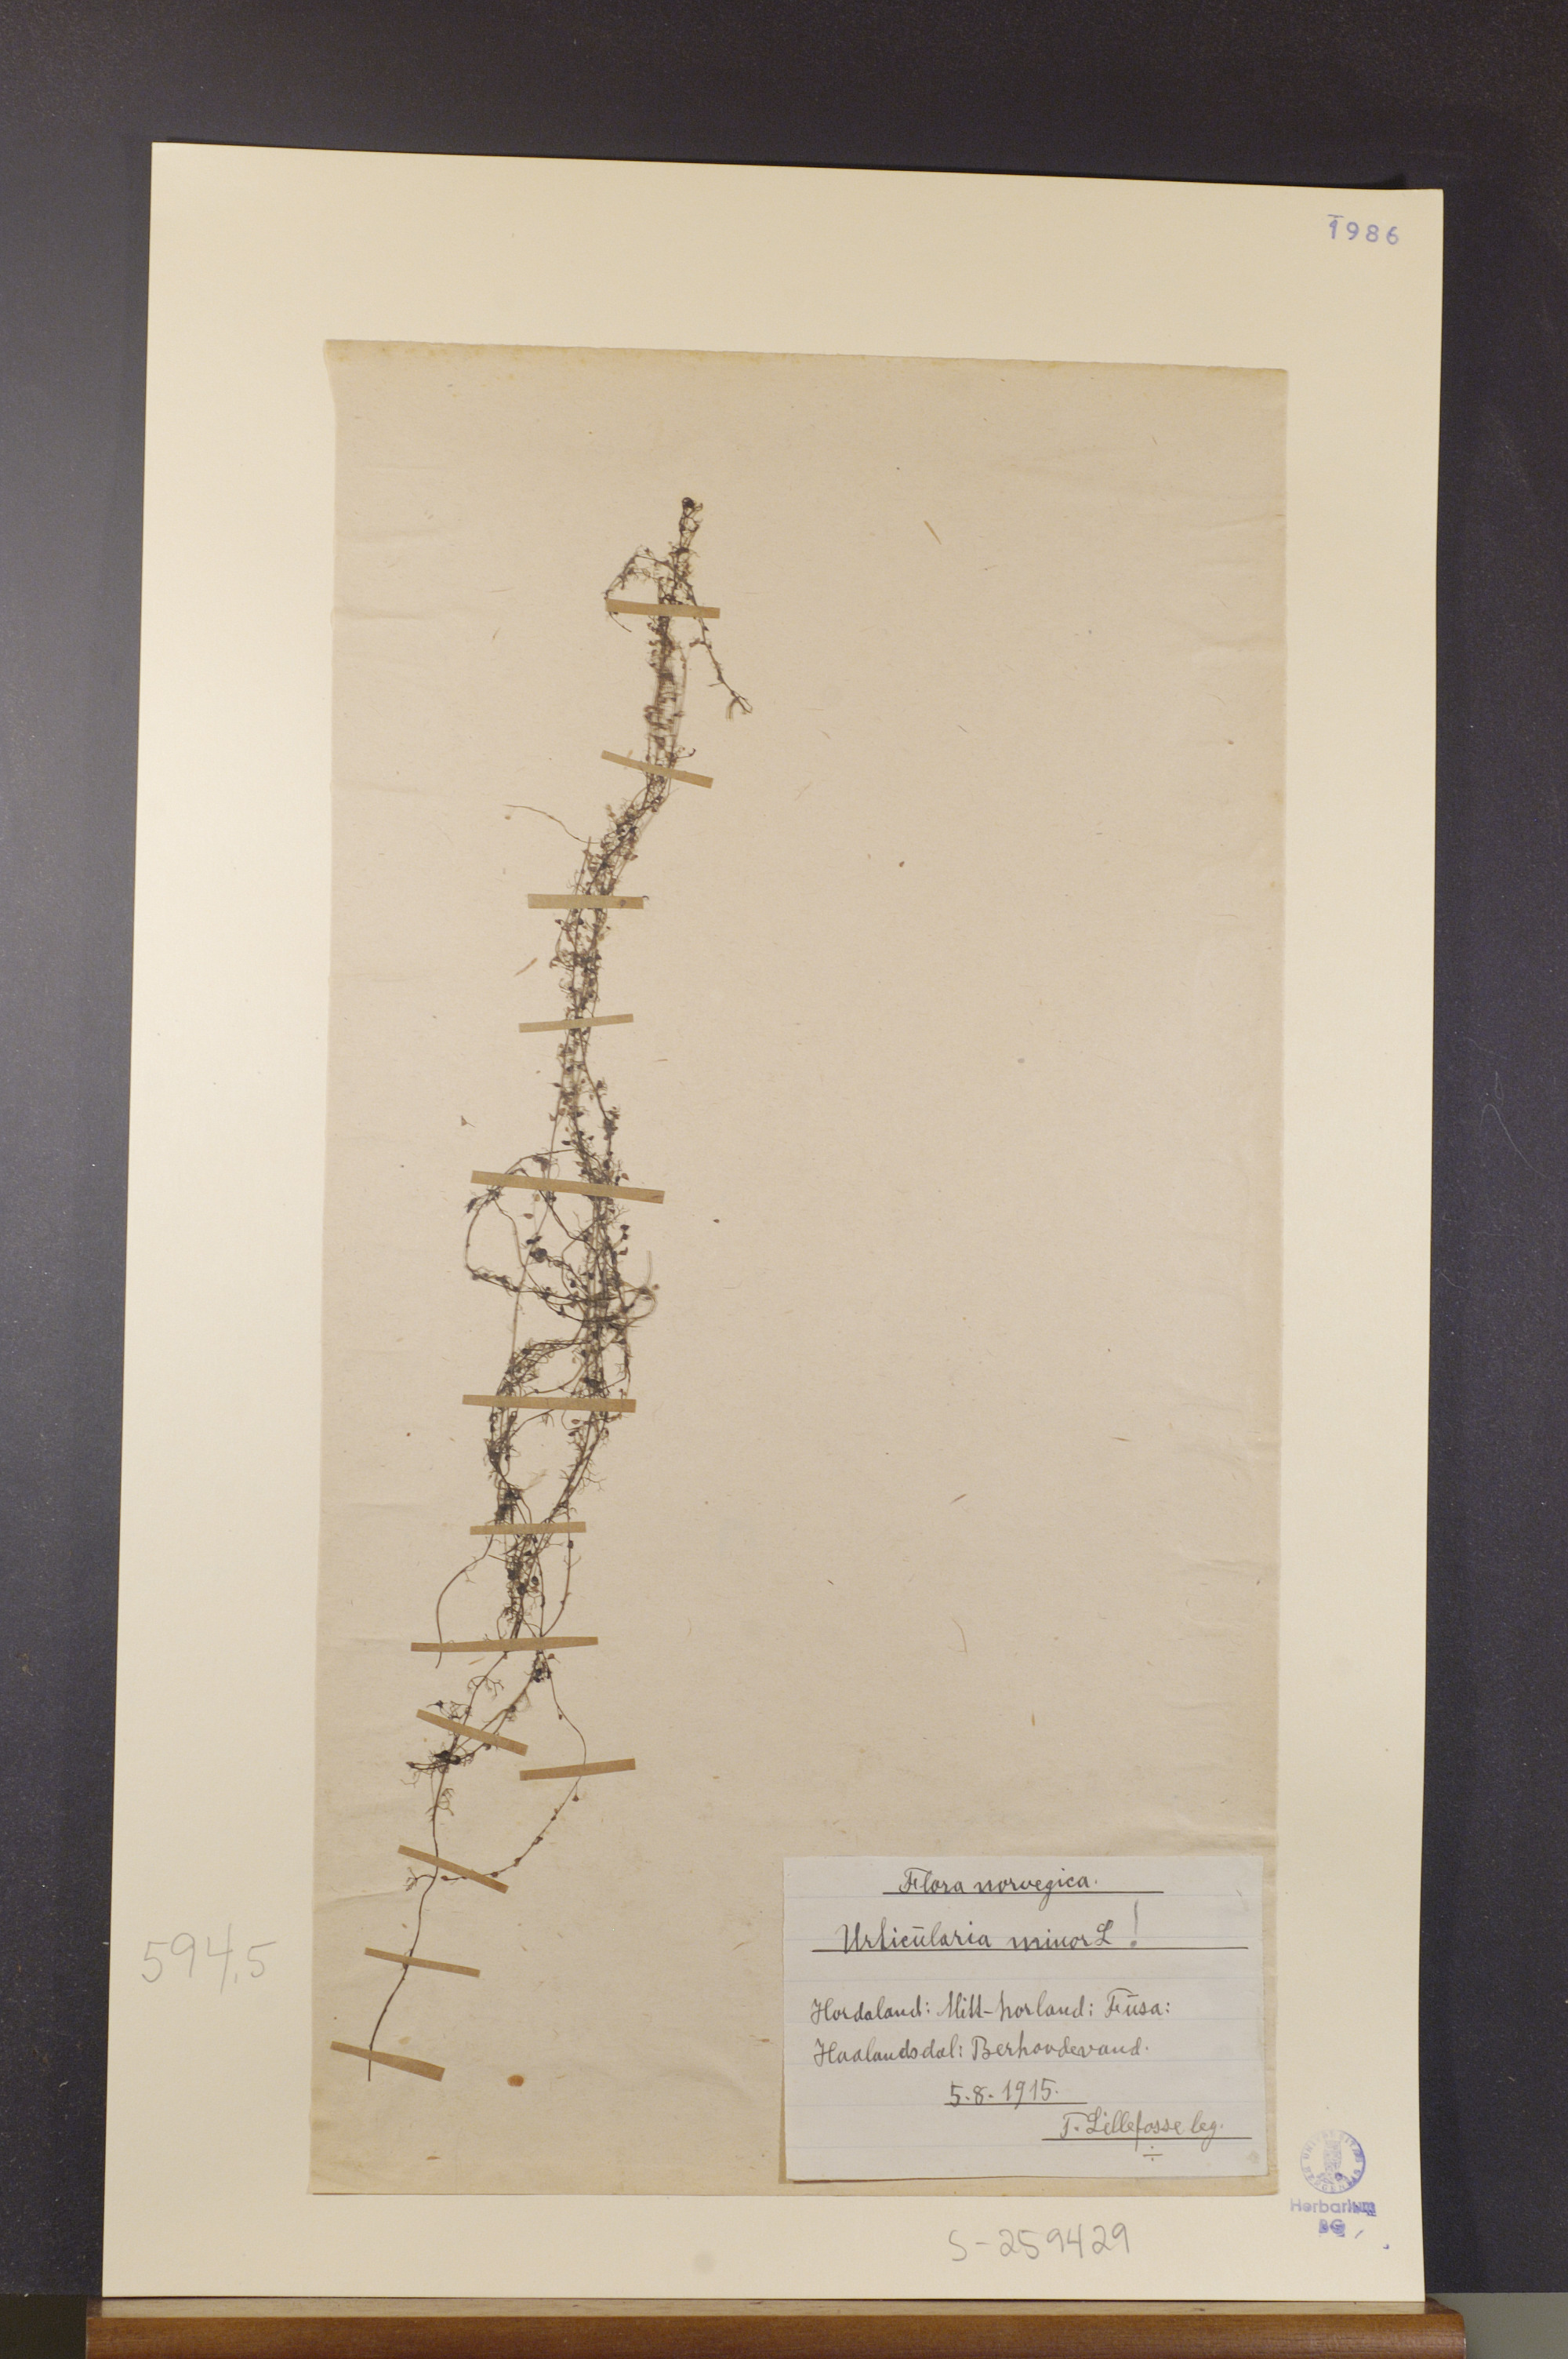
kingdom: Plantae
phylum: Tracheophyta
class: Magnoliopsida
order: Lamiales
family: Lentibulariaceae
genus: Utricularia
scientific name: Utricularia minor
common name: Lesser bladderwort
